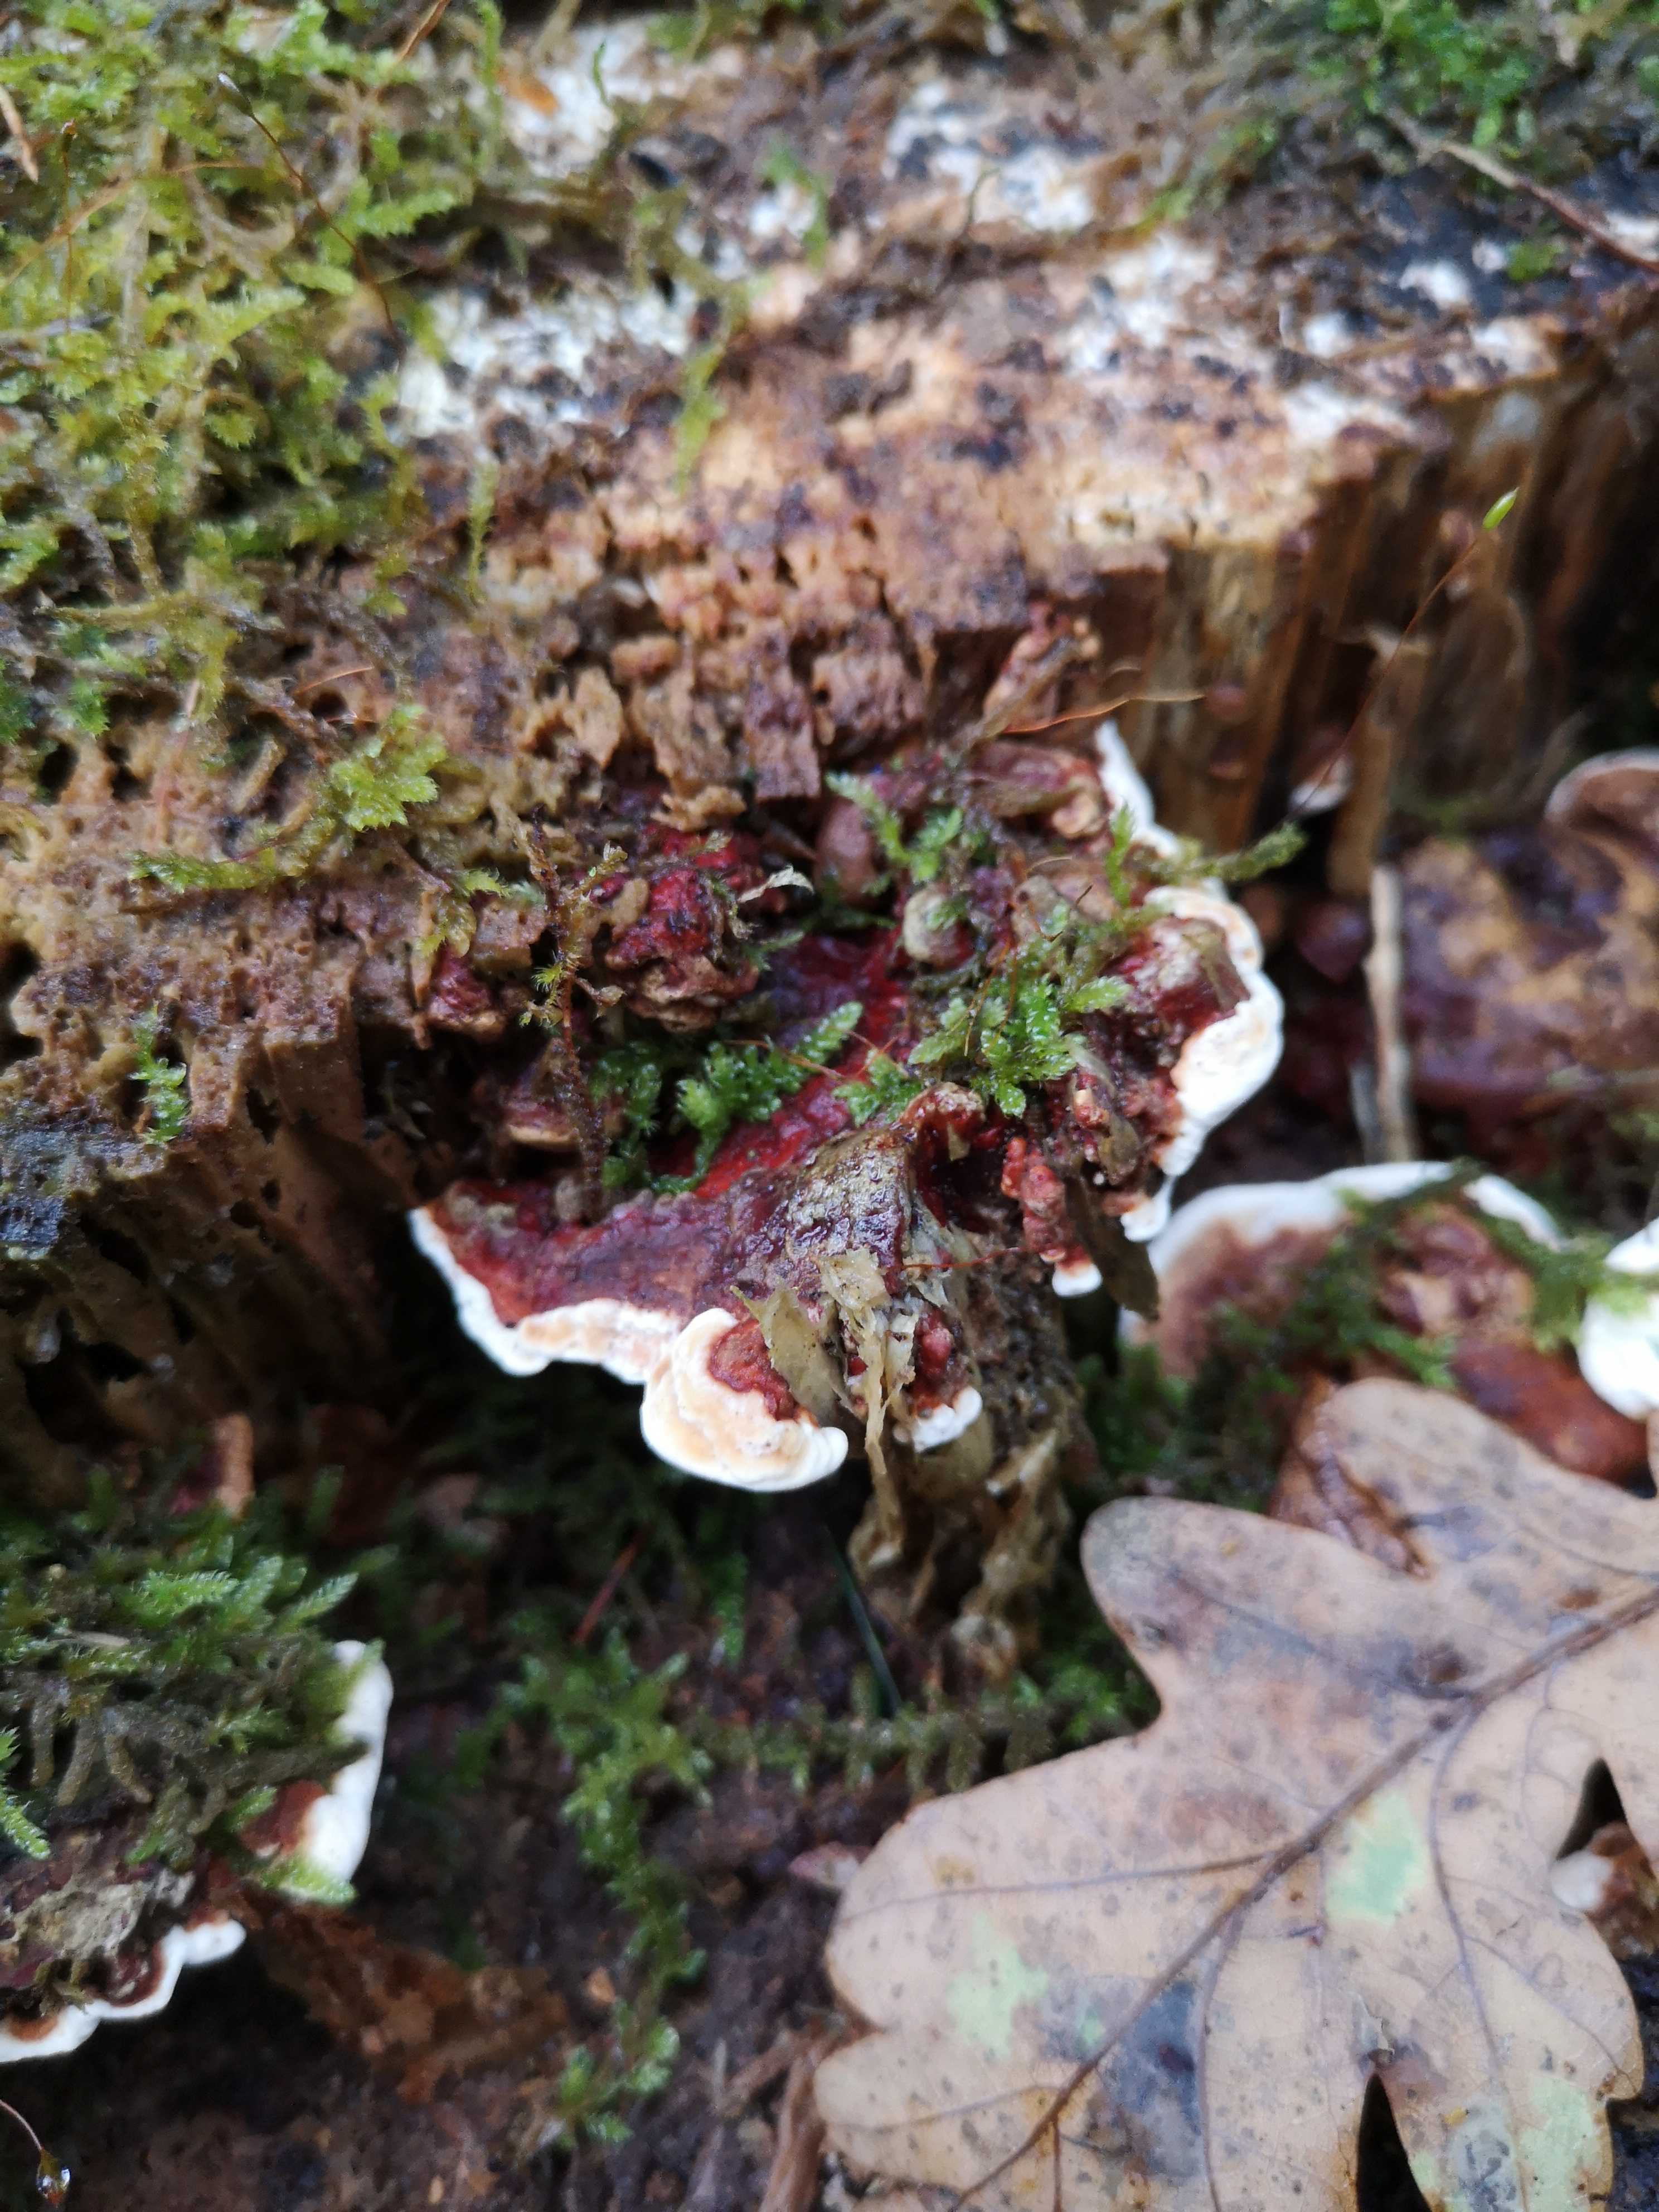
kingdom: Fungi
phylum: Basidiomycota
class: Agaricomycetes
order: Russulales
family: Bondarzewiaceae
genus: Heterobasidion
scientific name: Heterobasidion annosum
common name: almindelig rodfordærver
